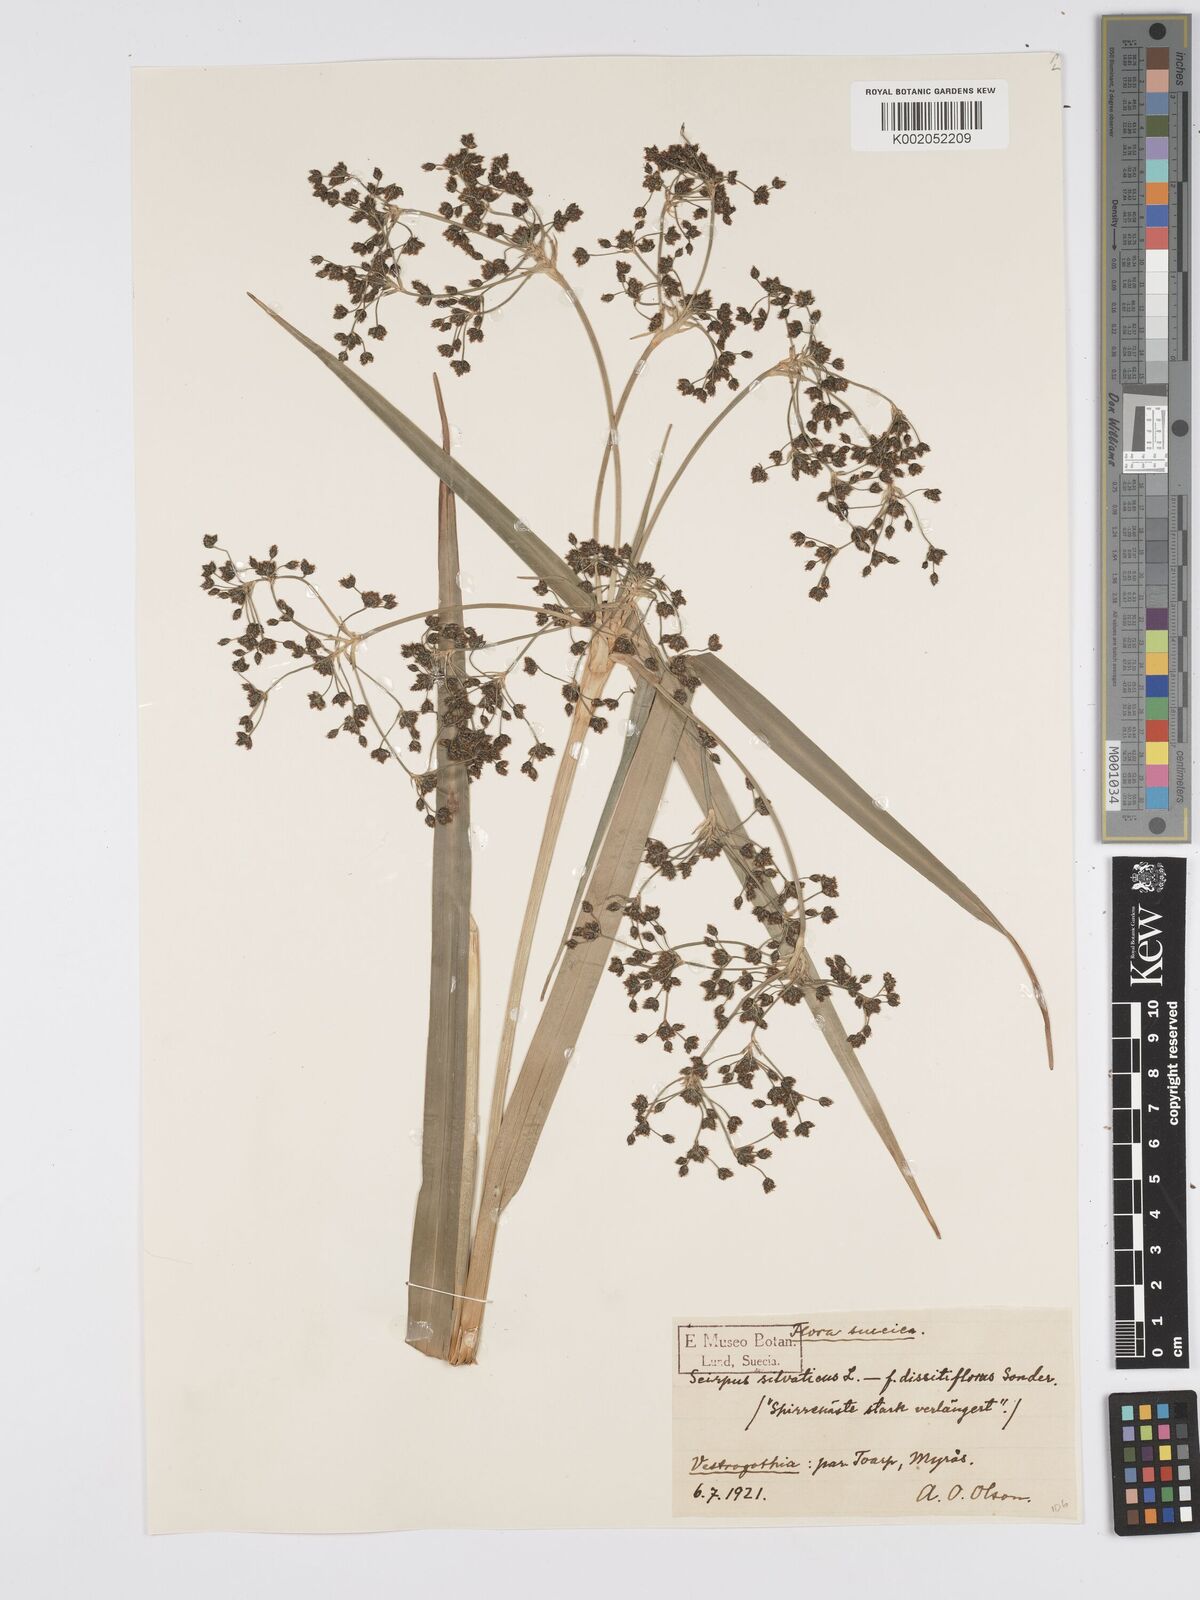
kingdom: Plantae
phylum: Tracheophyta
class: Liliopsida
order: Poales
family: Cyperaceae
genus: Scirpus
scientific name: Scirpus sylvaticus
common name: Wood club-rush
